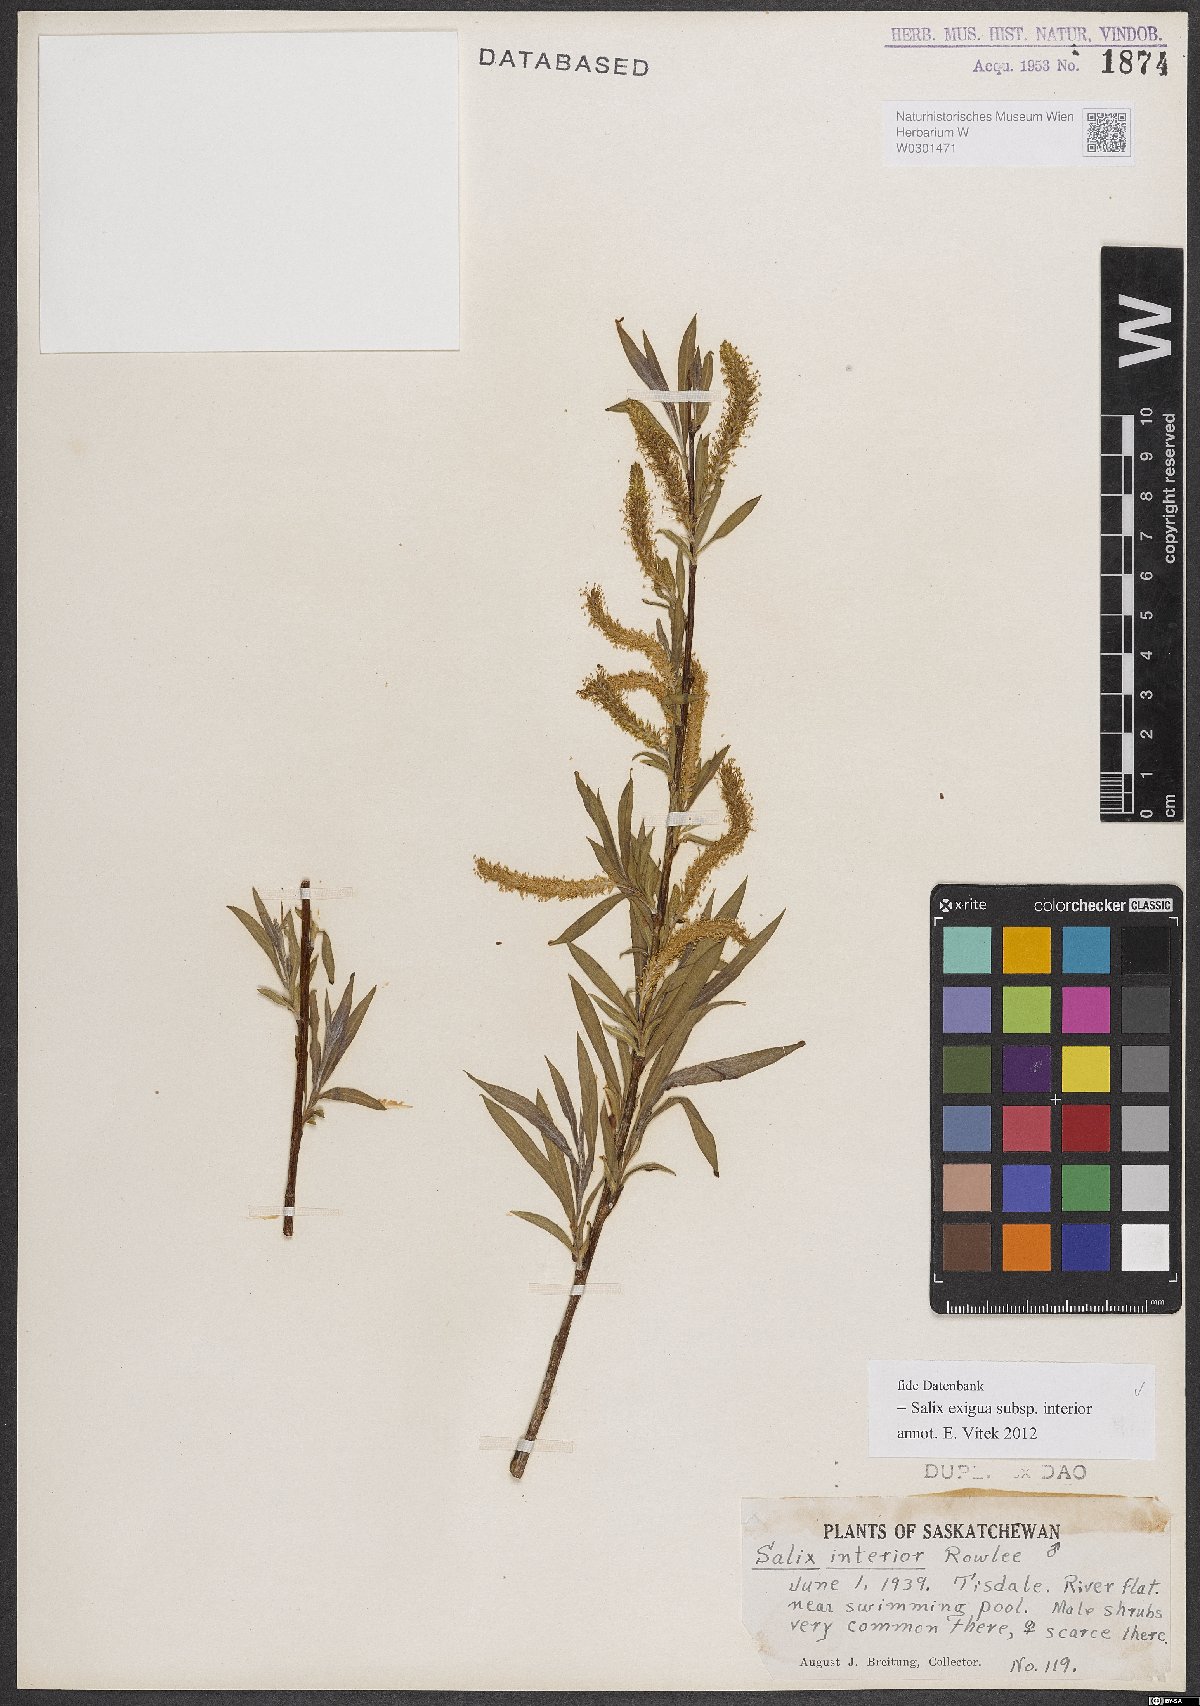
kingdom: Plantae
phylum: Tracheophyta
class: Magnoliopsida
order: Malpighiales
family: Salicaceae
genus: Salix
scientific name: Salix interior
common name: Sandbar willow
